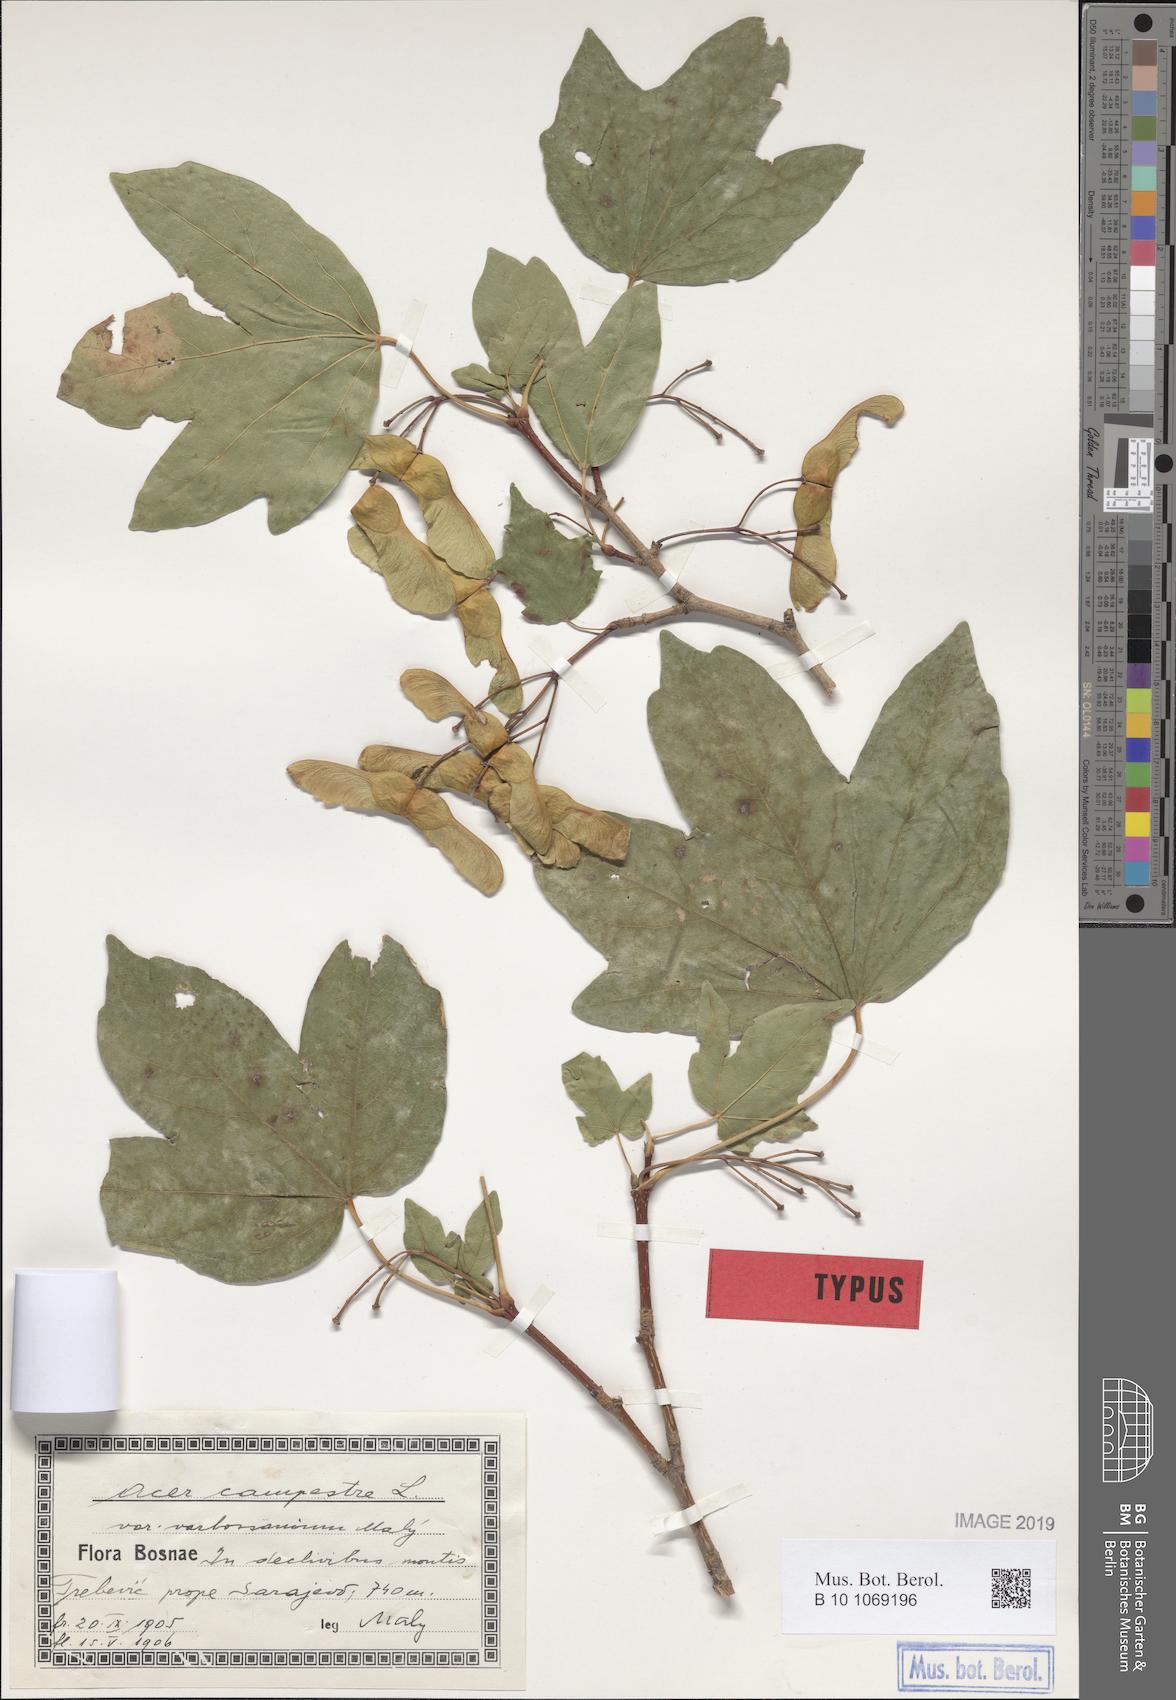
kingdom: Plantae
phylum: Tracheophyta
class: Magnoliopsida
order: Sapindales
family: Sapindaceae
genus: Acer
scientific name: Acer varbossanium
